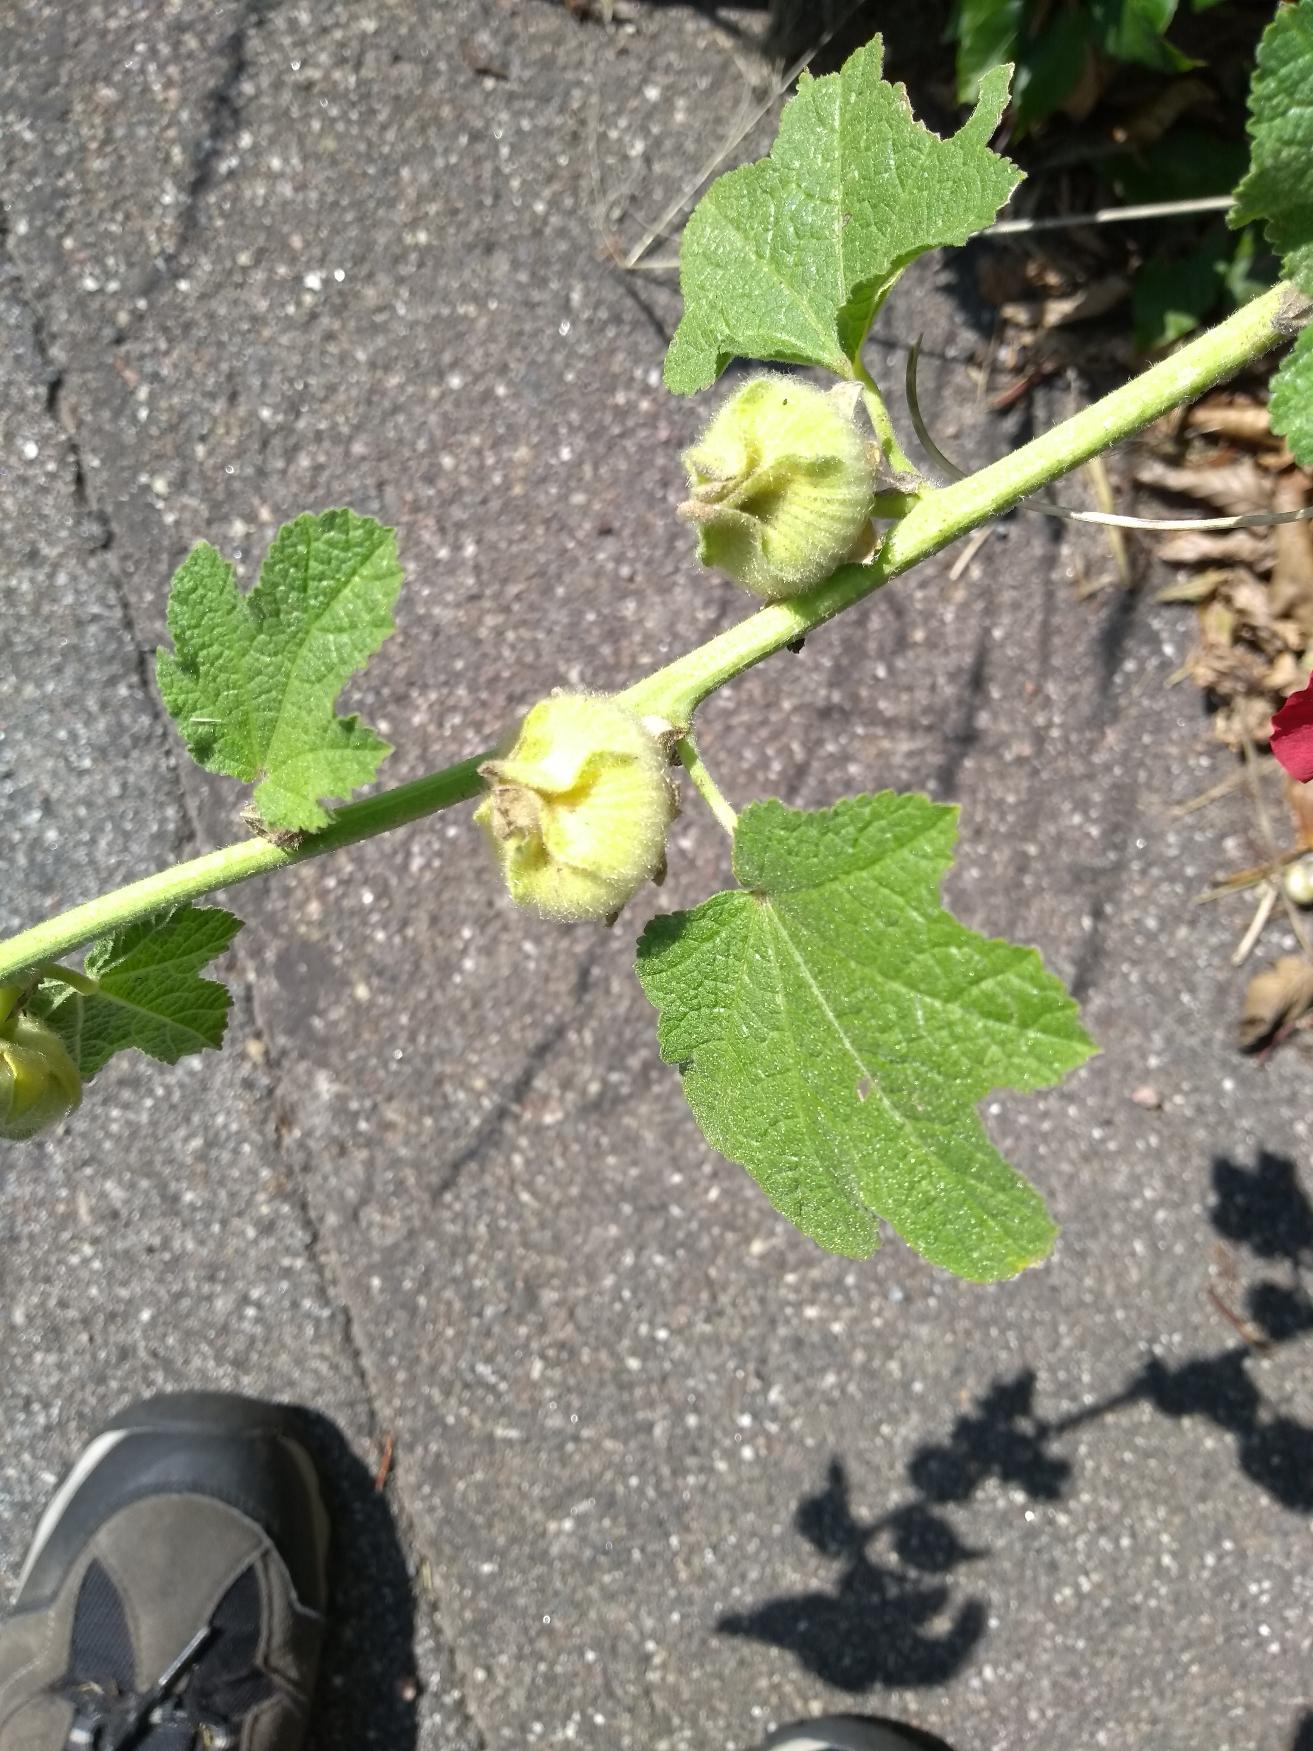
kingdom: Plantae
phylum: Tracheophyta
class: Magnoliopsida
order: Malvales
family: Malvaceae
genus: Alcea
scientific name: Alcea rosea
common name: Have-stokrose
